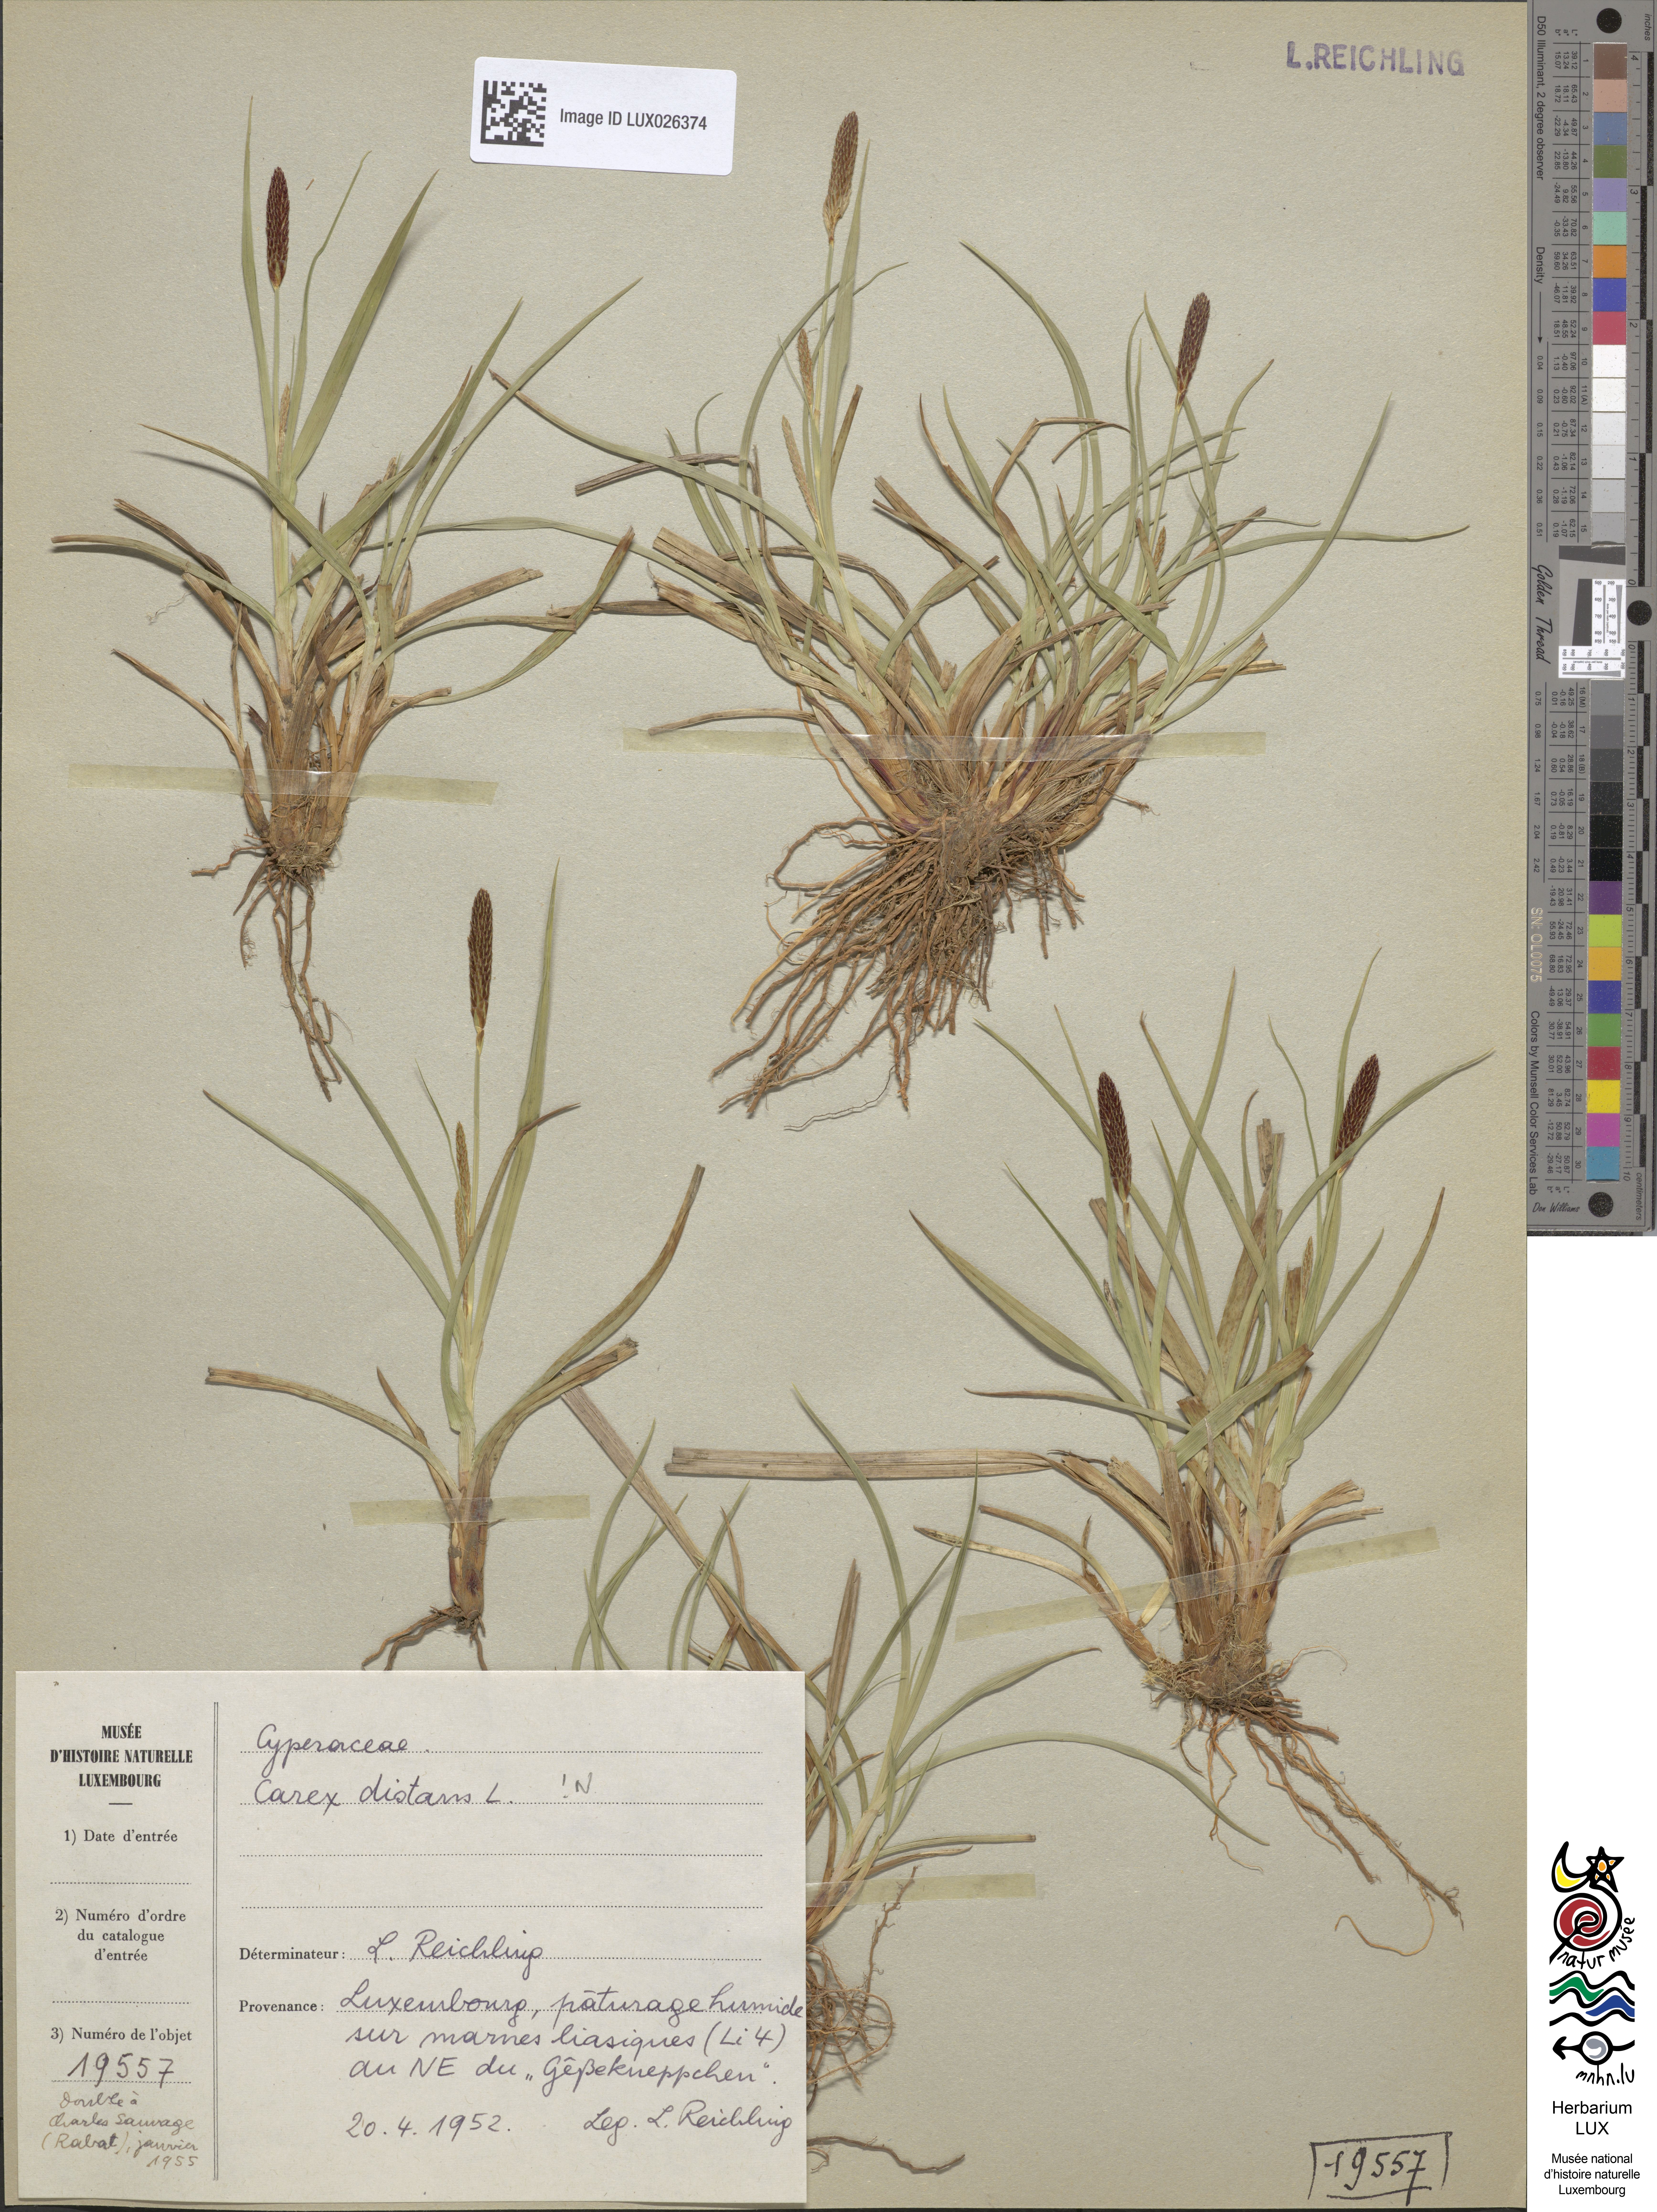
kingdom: Plantae
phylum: Tracheophyta
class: Liliopsida
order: Poales
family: Cyperaceae
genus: Carex
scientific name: Carex distans
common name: Distant sedge
